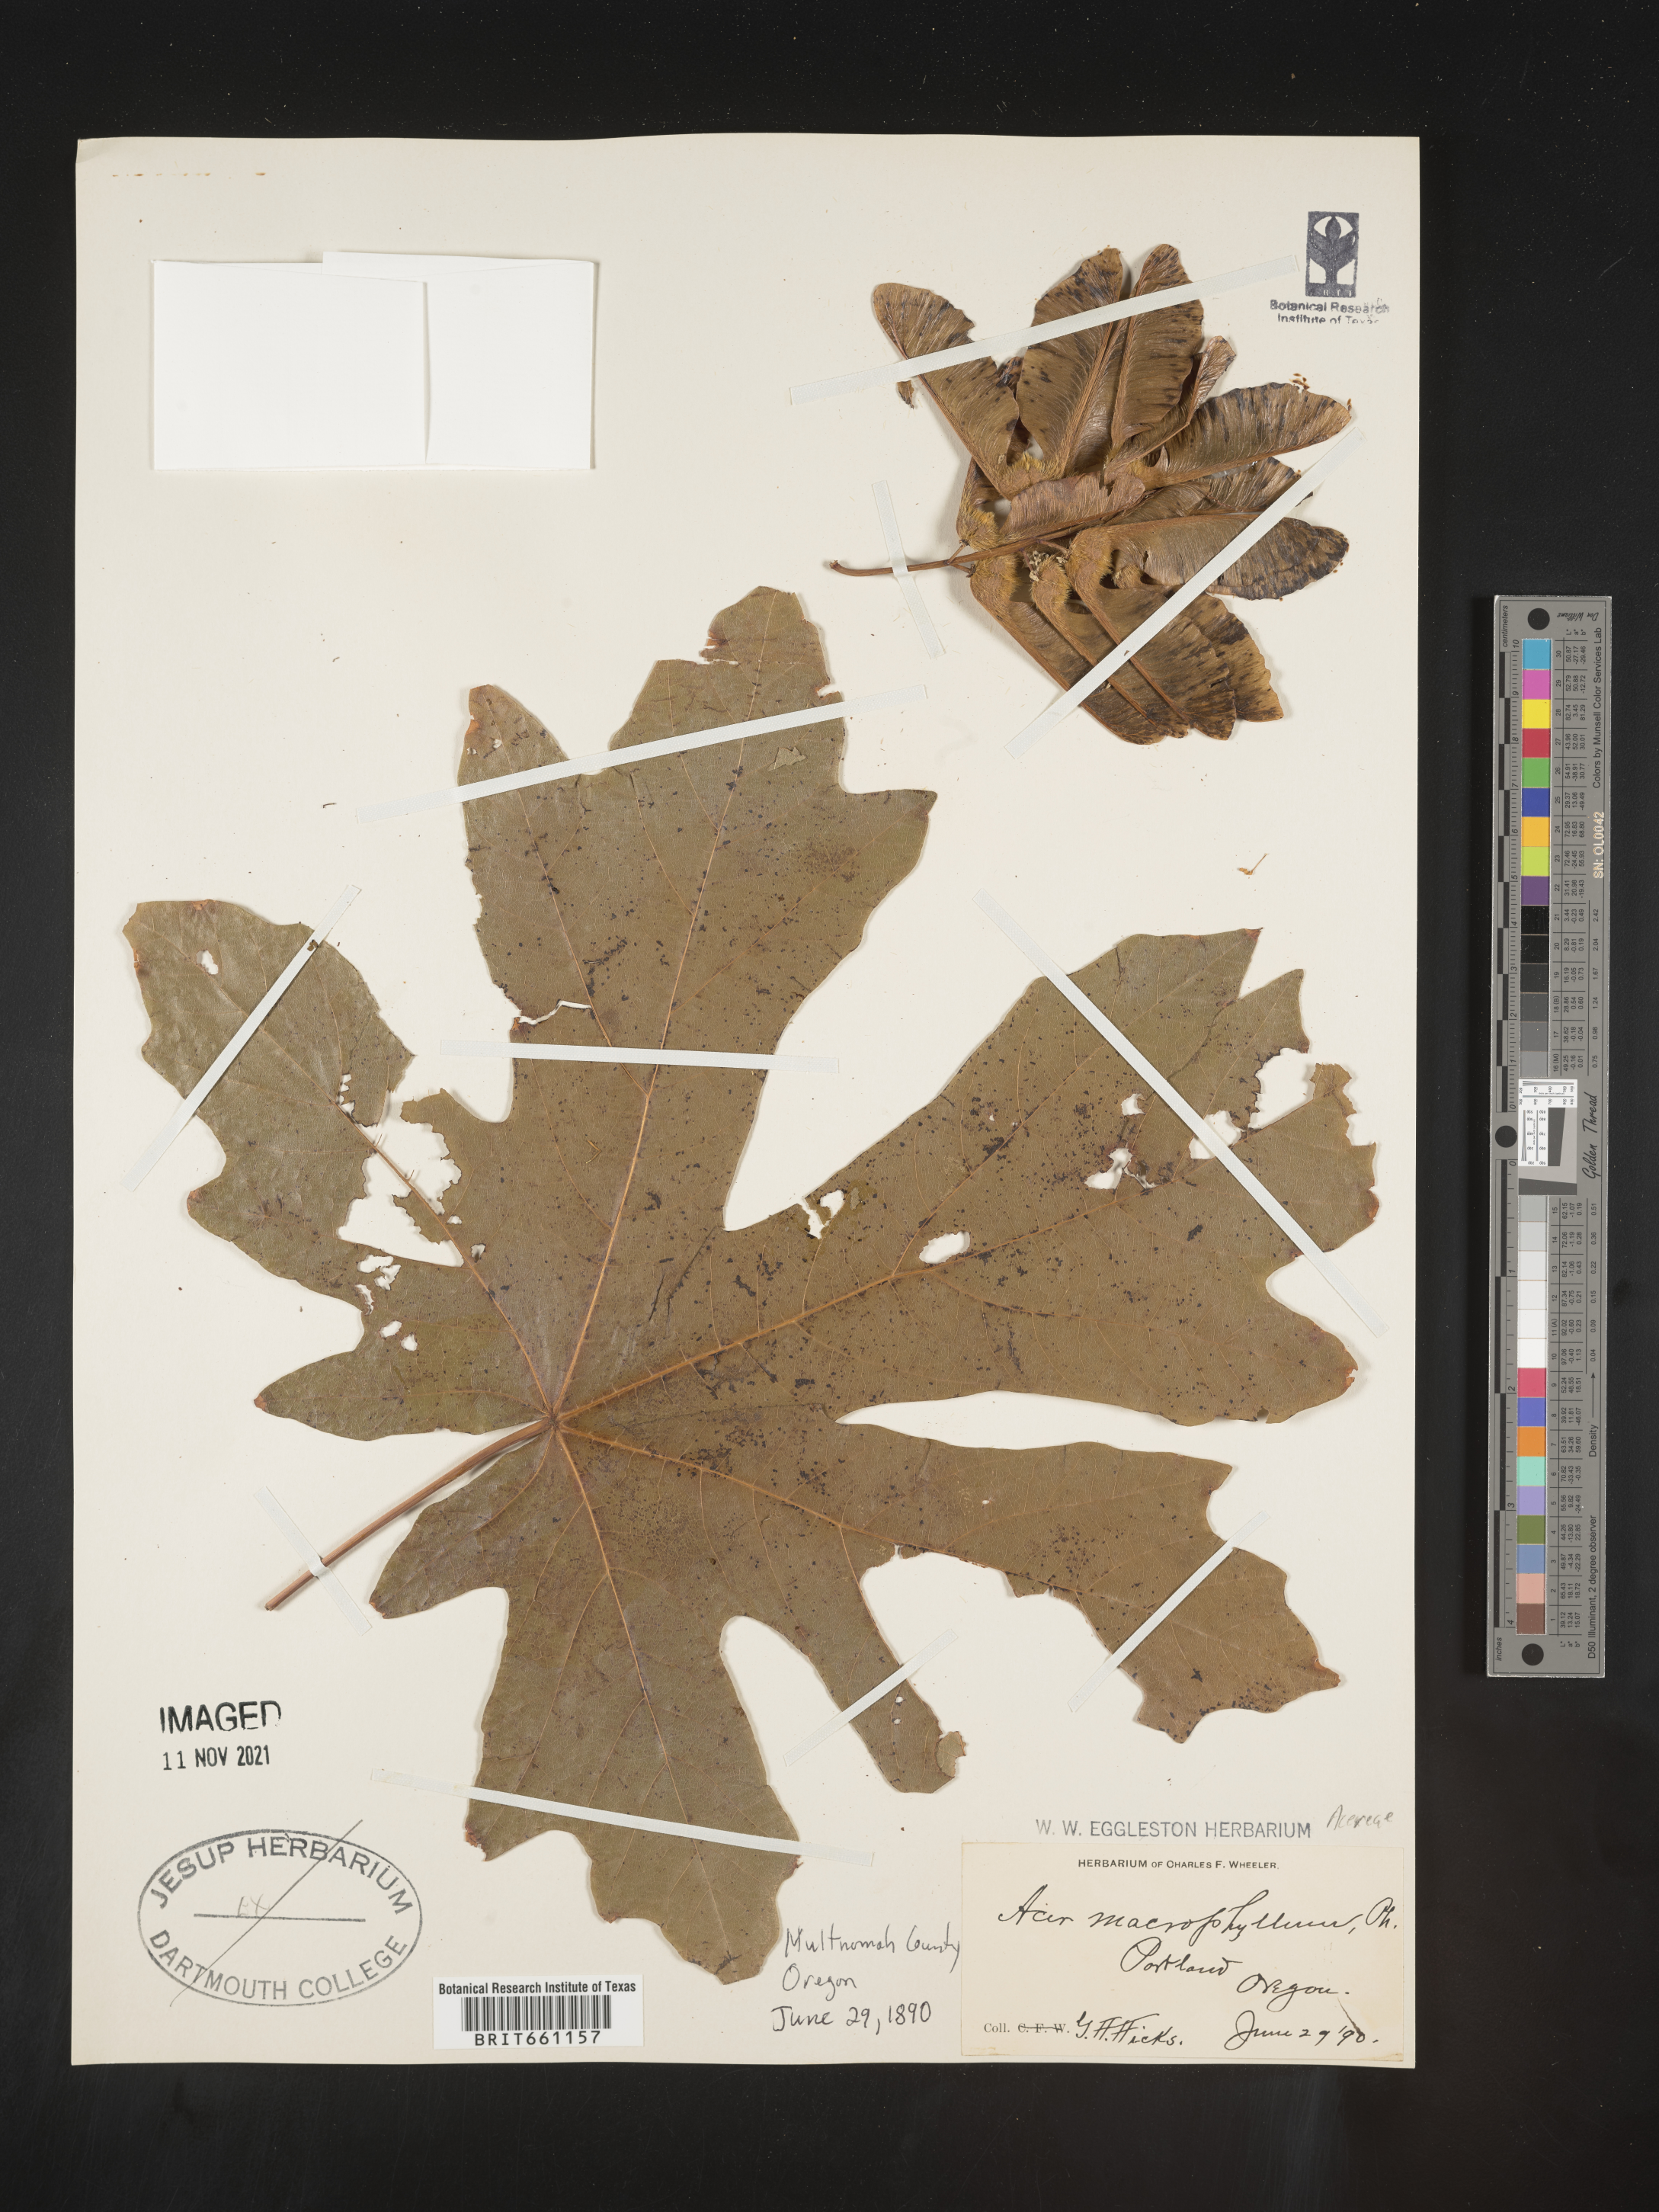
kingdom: Plantae
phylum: Tracheophyta
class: Magnoliopsida
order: Sapindales
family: Sapindaceae
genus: Acer
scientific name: Acer macrophyllum
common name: Oregon maple
